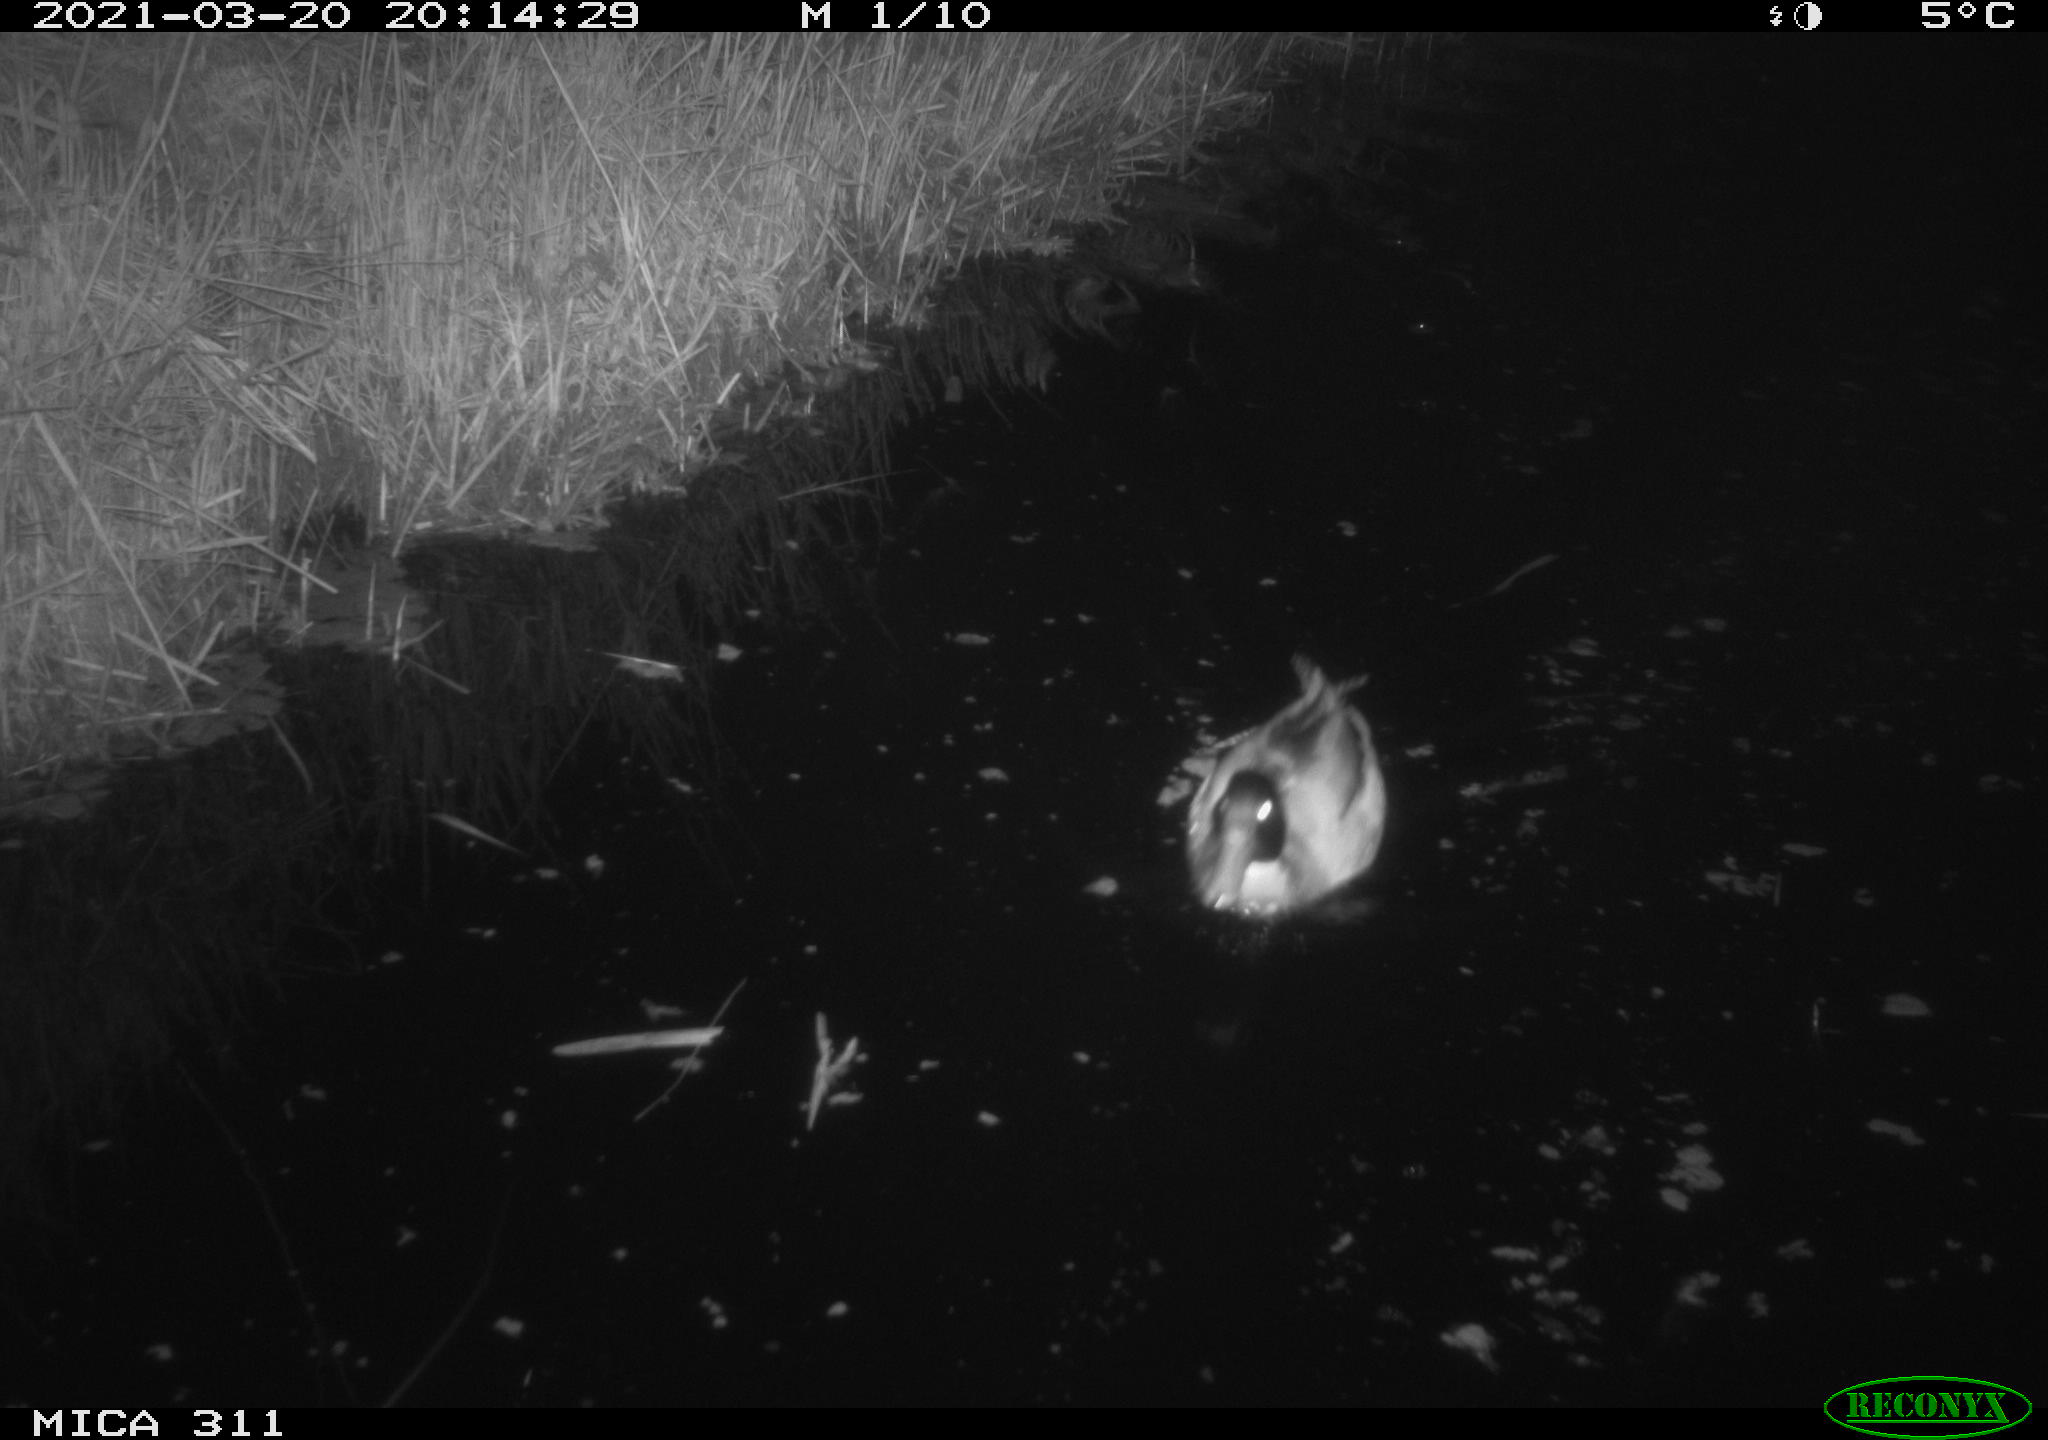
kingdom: Animalia
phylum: Chordata
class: Aves
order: Anseriformes
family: Anatidae
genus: Anas
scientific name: Anas
